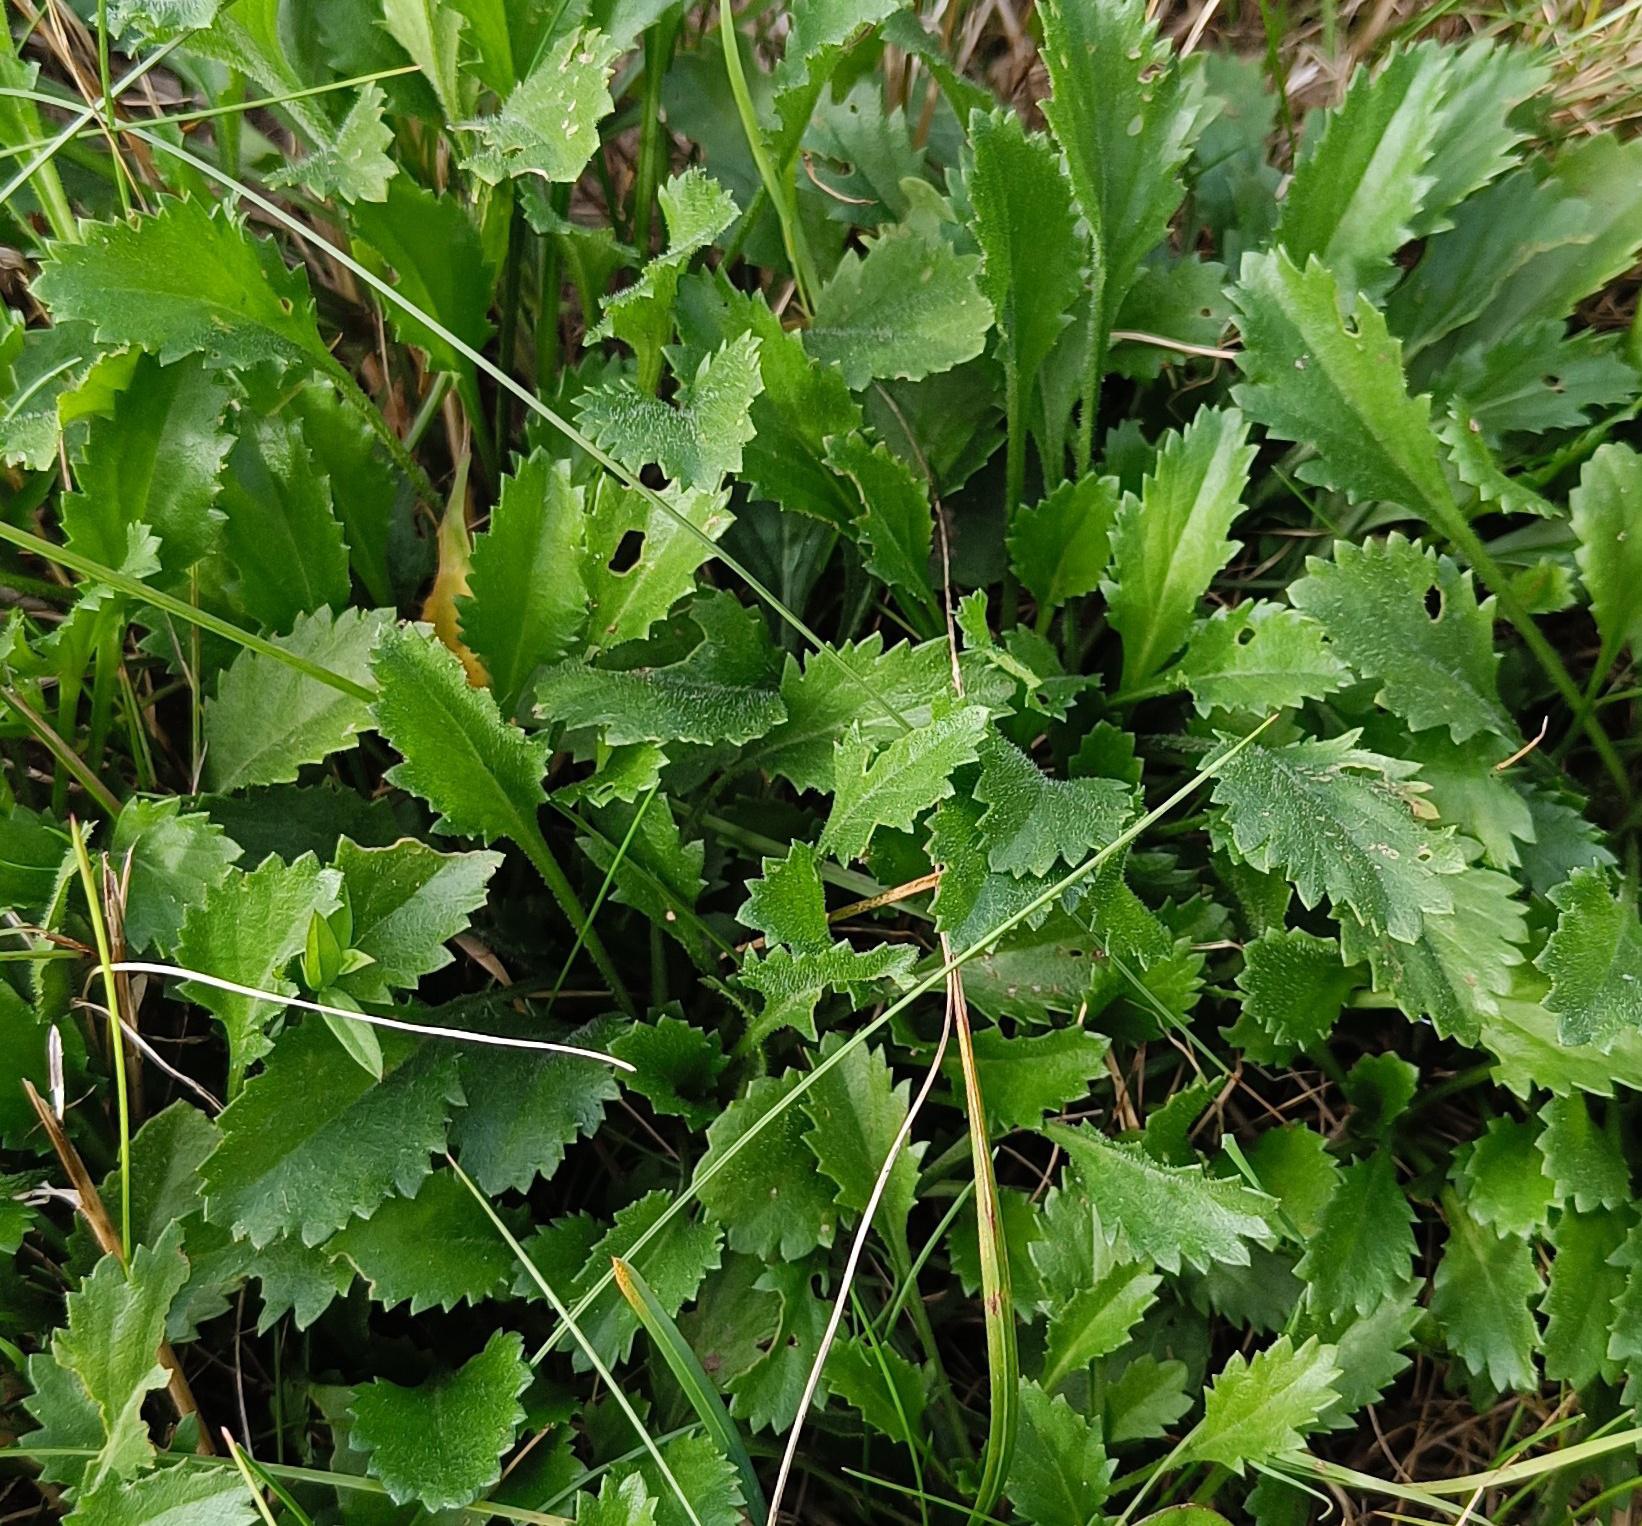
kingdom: Plantae
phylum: Tracheophyta
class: Magnoliopsida
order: Asterales
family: Asteraceae
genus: Leucanthemum
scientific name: Leucanthemum vulgare
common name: Hvid okseøje
